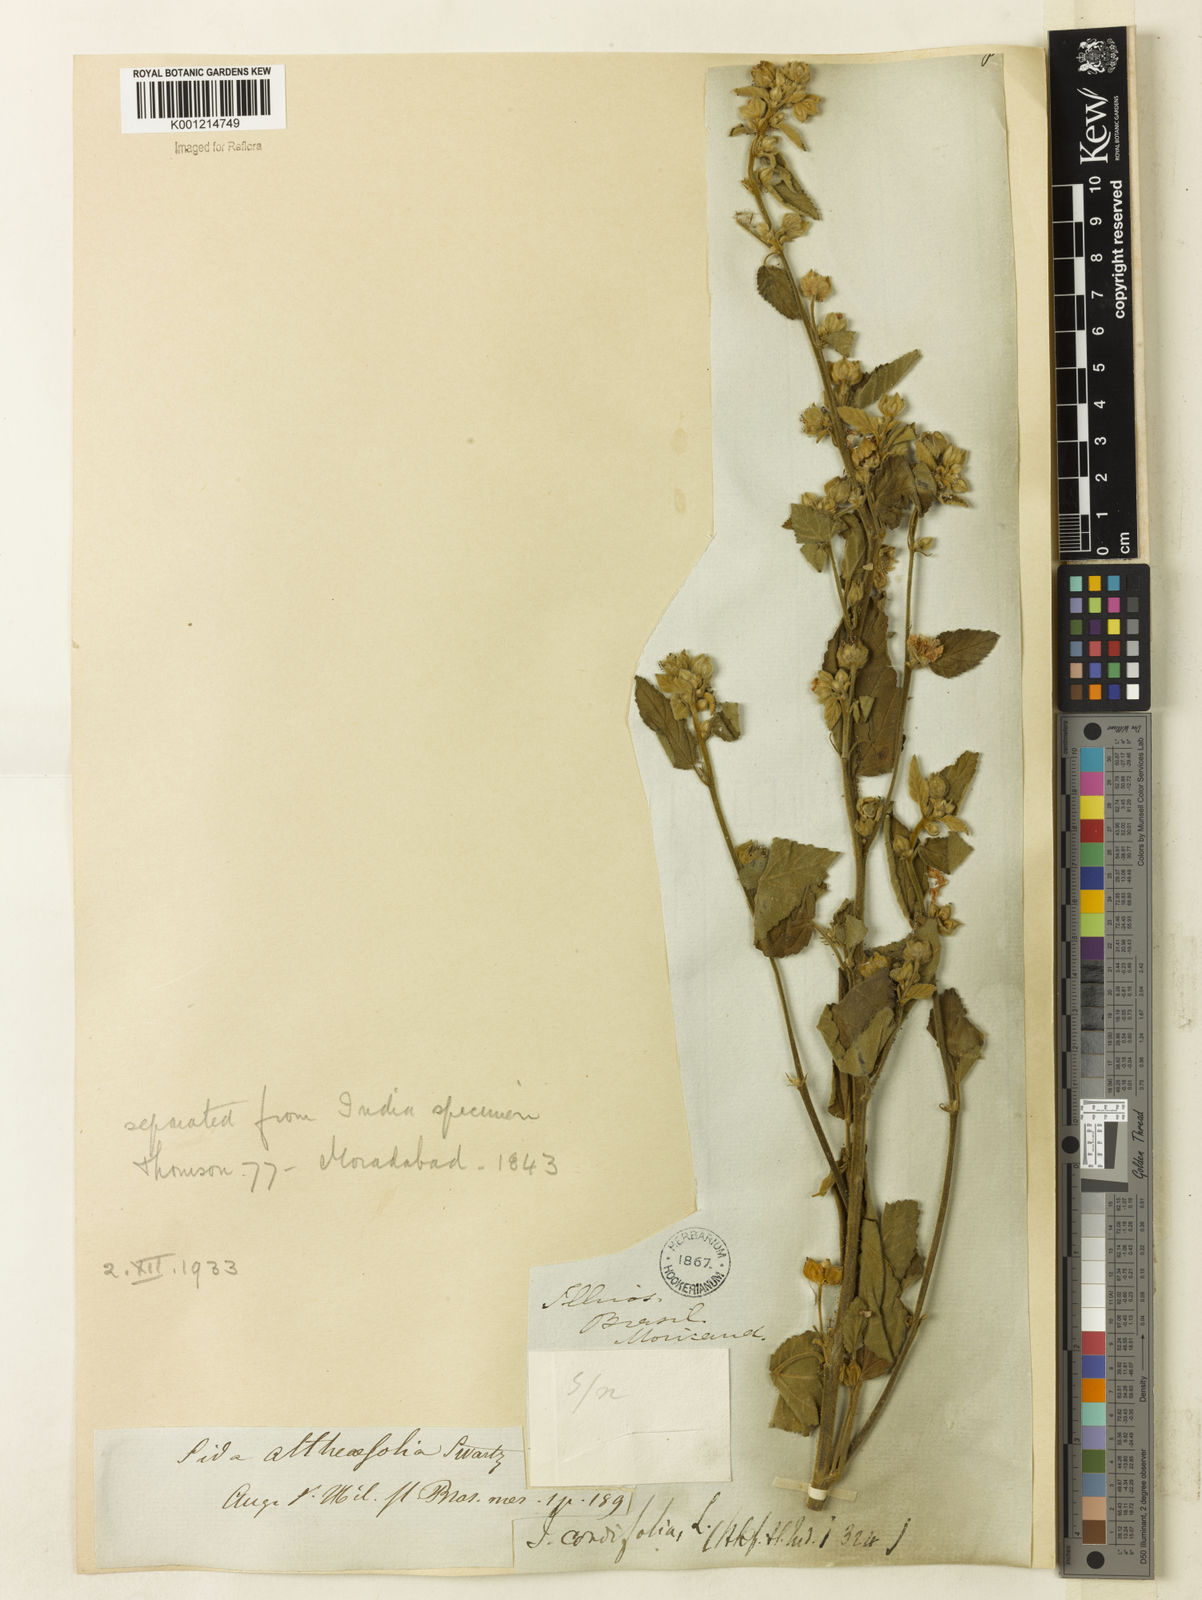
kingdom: Plantae
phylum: Tracheophyta
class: Magnoliopsida
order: Malvales
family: Malvaceae
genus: Sida
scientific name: Sida cordifolia
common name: Ilima
